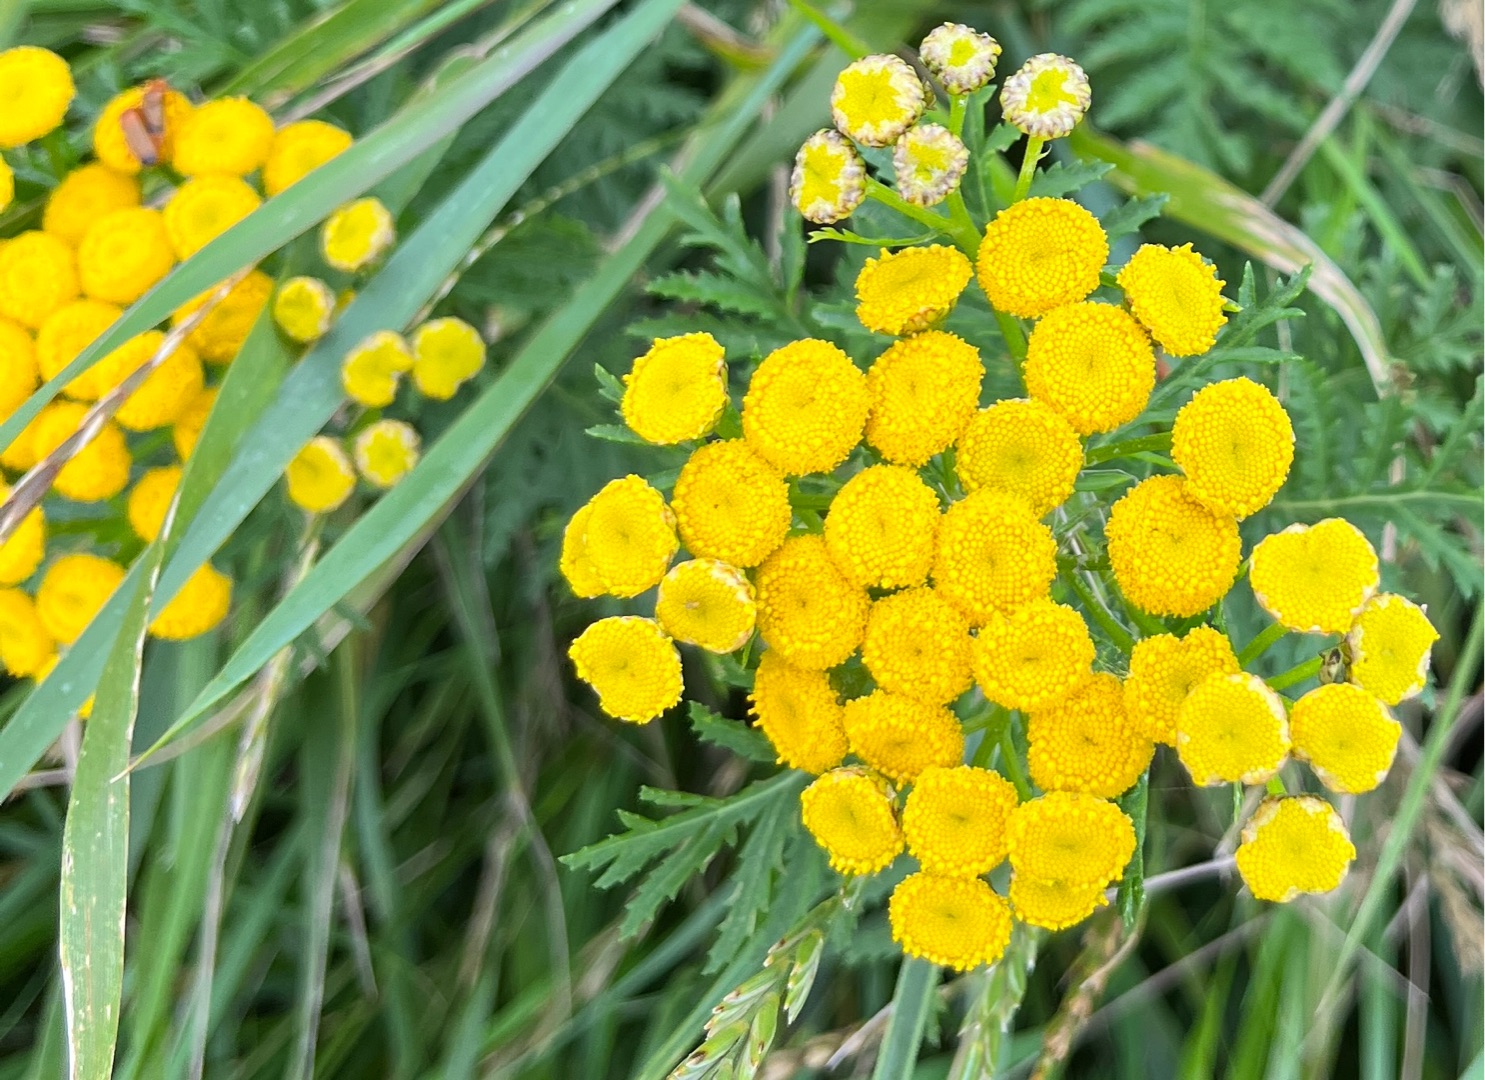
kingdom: Plantae
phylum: Tracheophyta
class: Magnoliopsida
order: Asterales
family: Asteraceae
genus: Tanacetum
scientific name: Tanacetum vulgare
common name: Rejnfan
